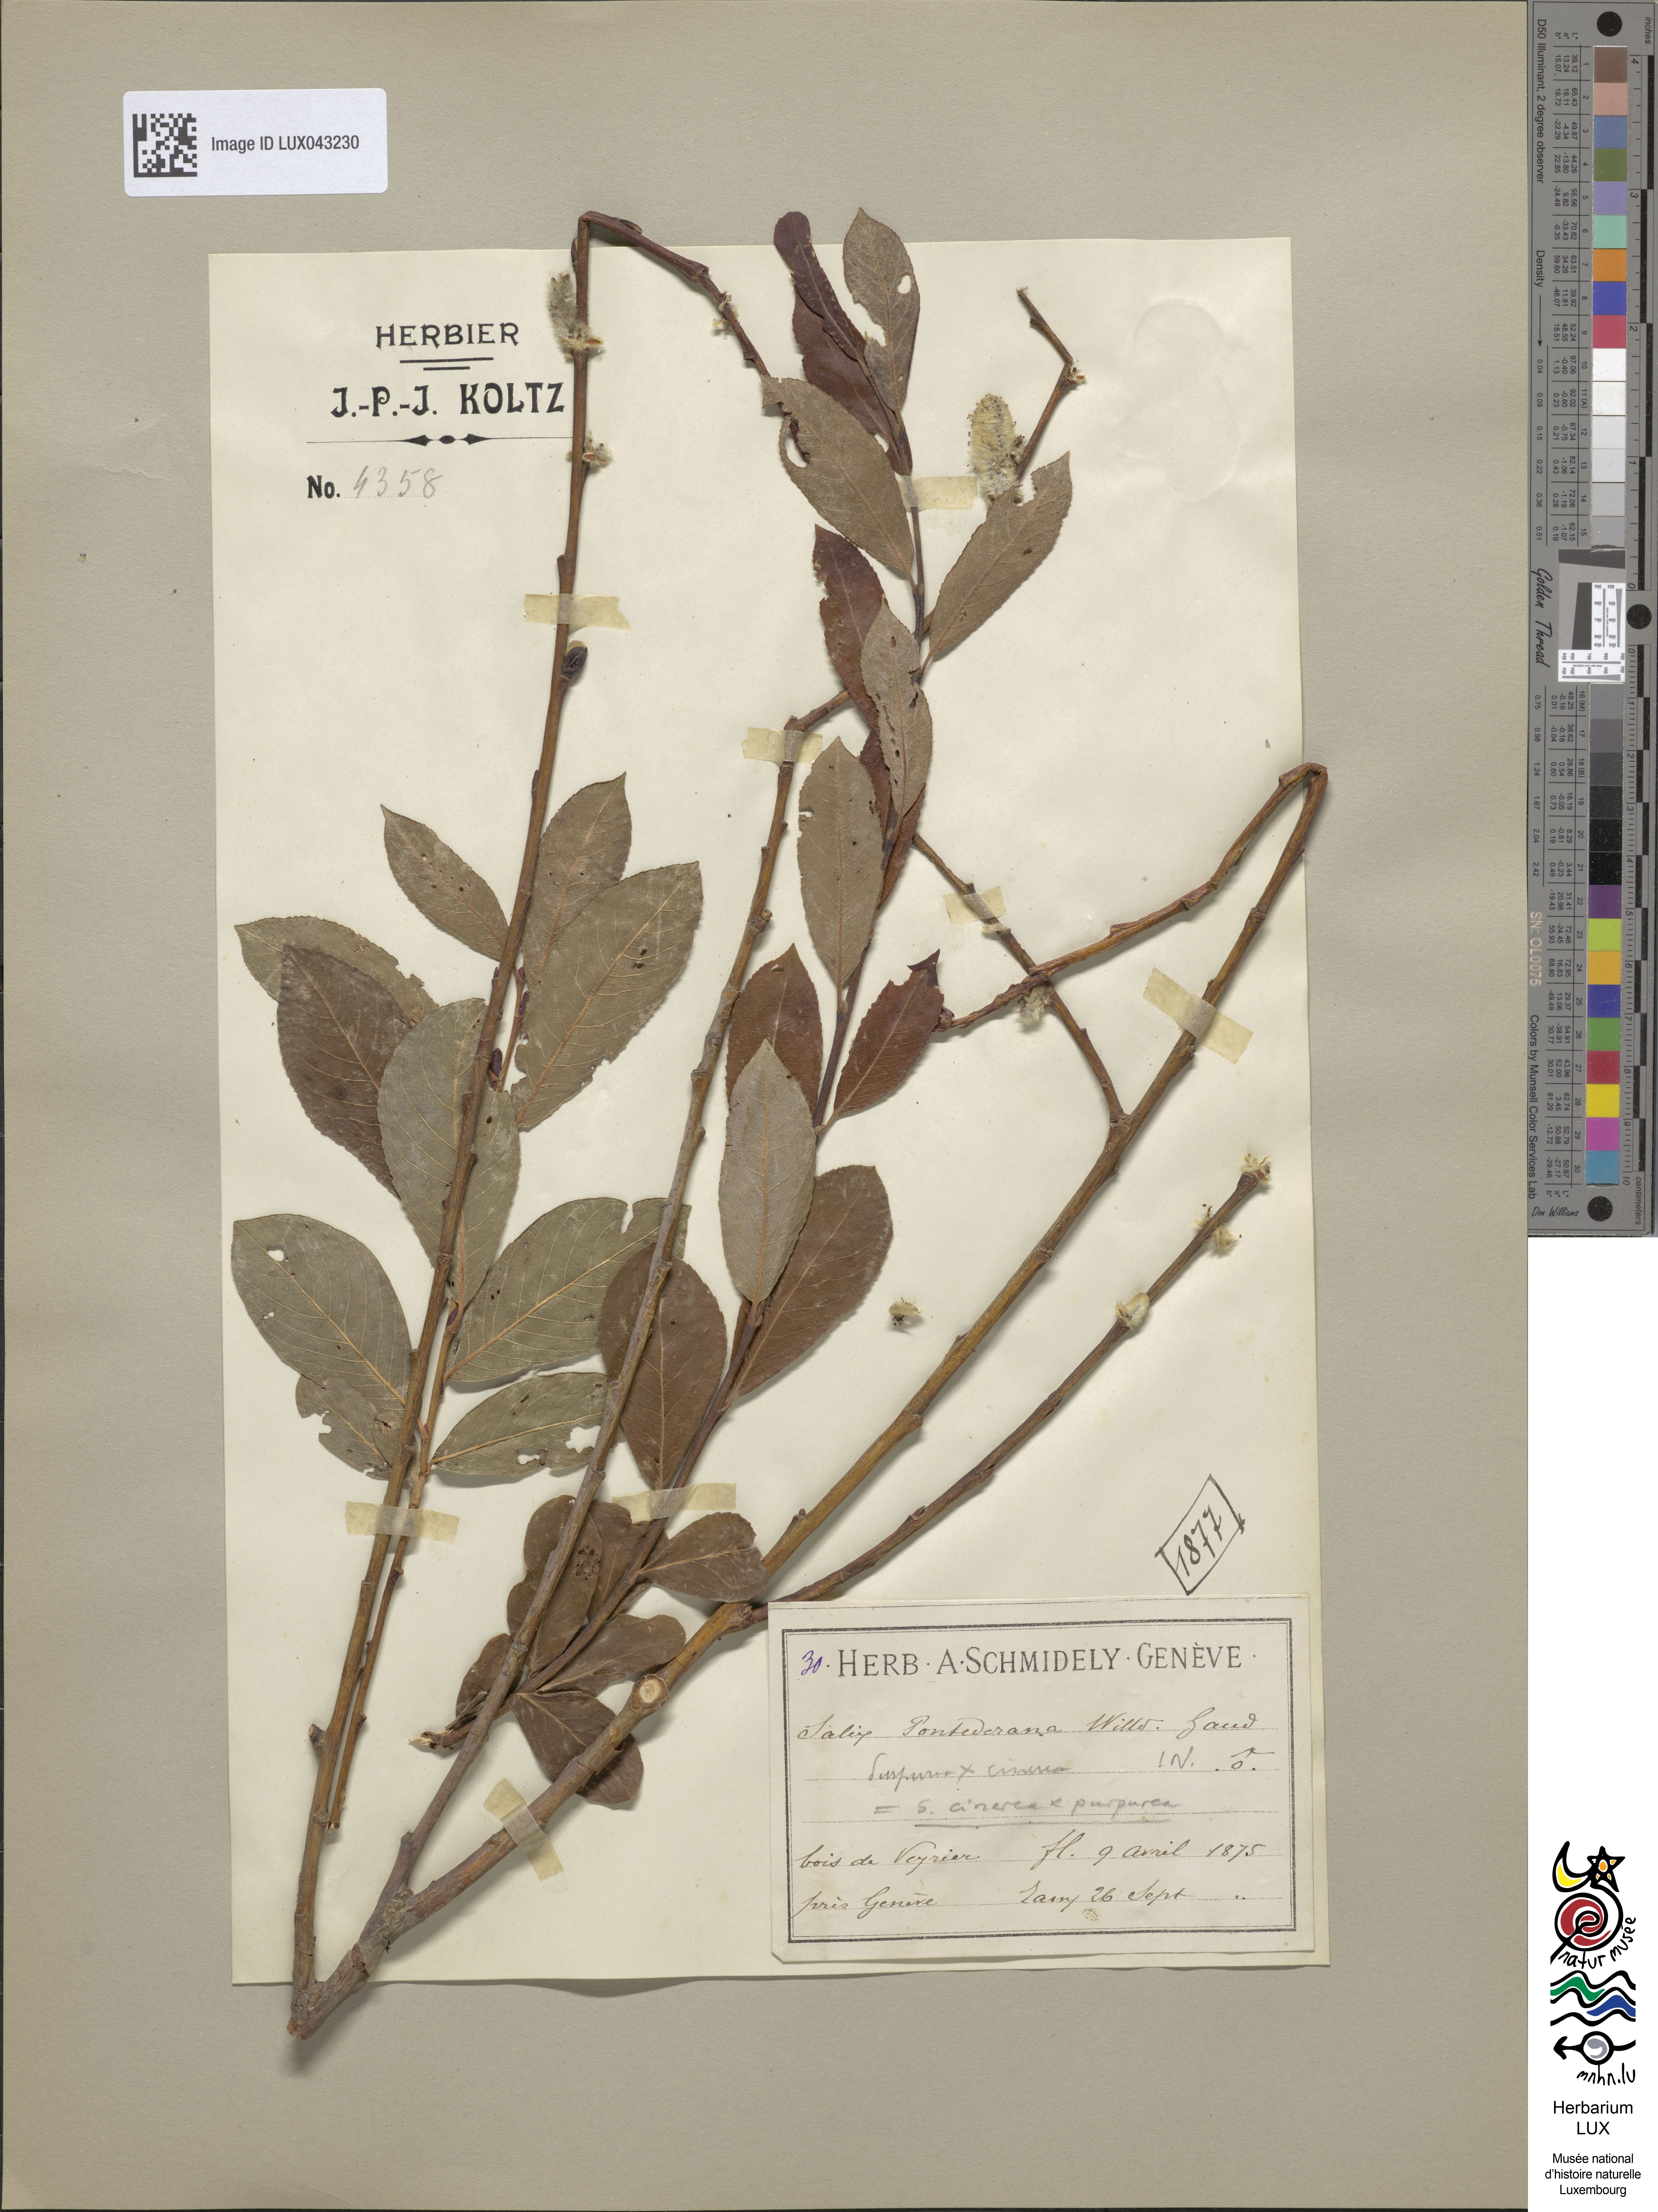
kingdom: Plantae
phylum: Tracheophyta
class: Magnoliopsida
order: Malpighiales
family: Salicaceae
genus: Salix
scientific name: Salix
